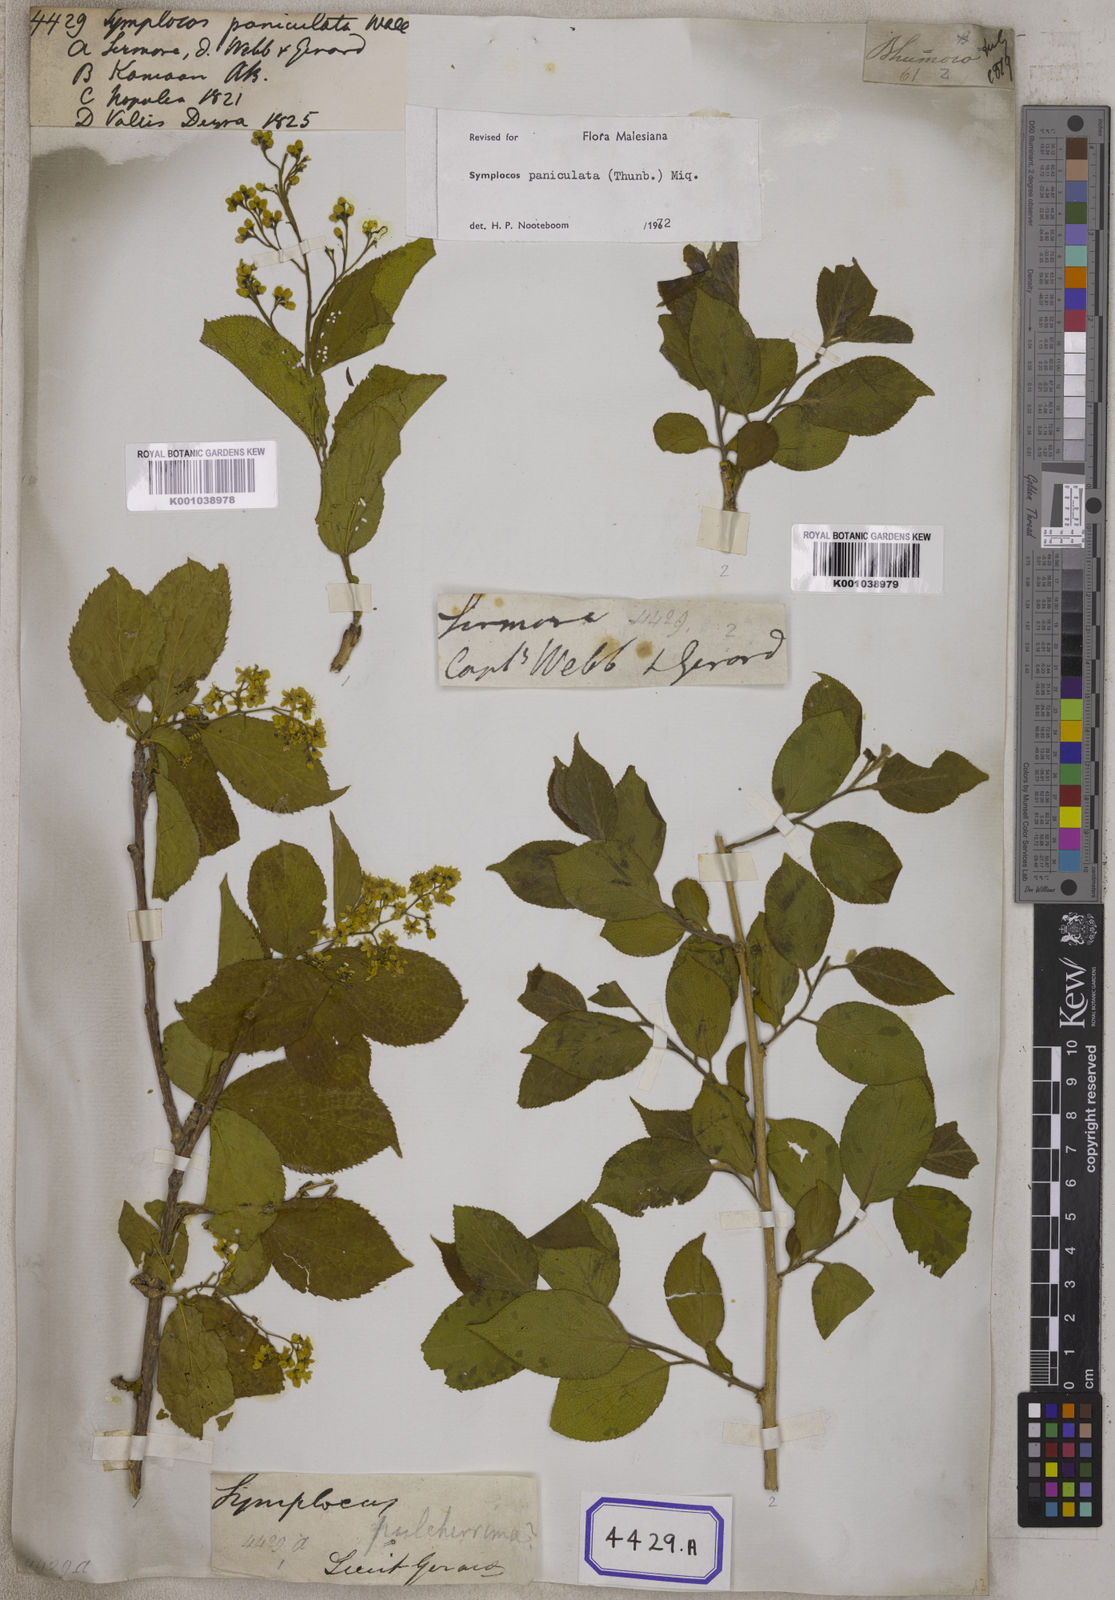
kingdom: Plantae
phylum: Tracheophyta
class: Magnoliopsida
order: Ericales
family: Symplocaceae
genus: Symplocos
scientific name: Symplocos
